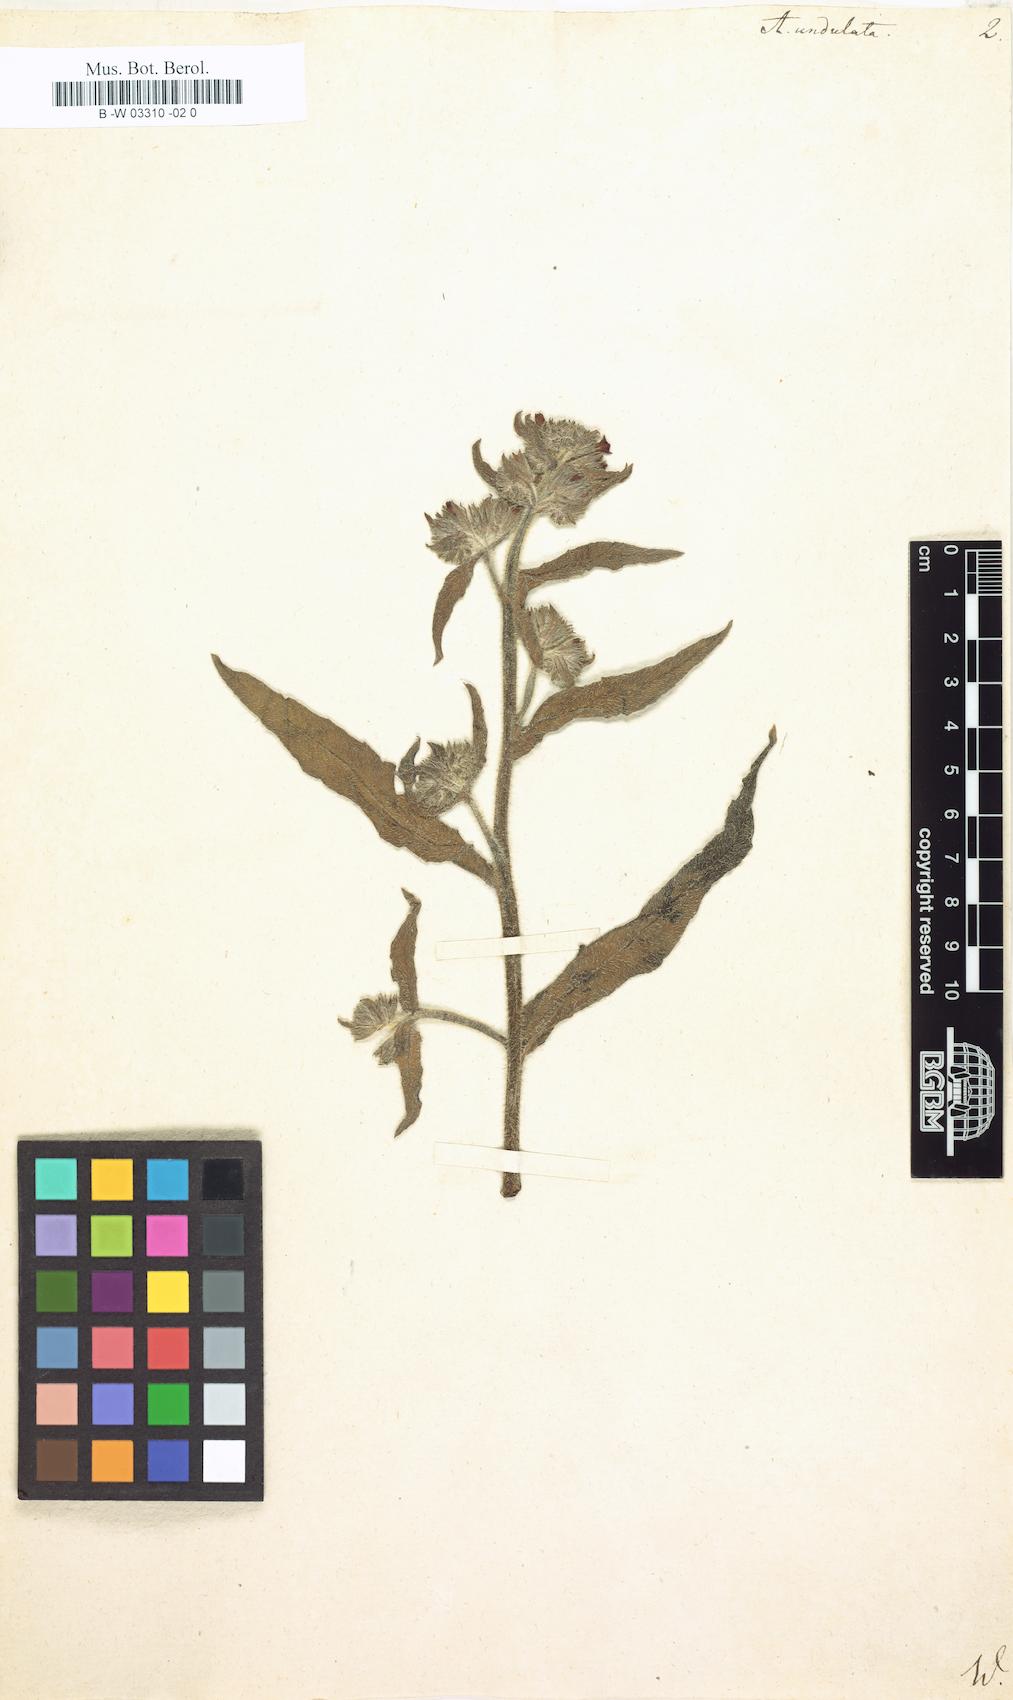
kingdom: Plantae
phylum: Tracheophyta
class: Magnoliopsida
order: Boraginales
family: Boraginaceae
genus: Anchusa
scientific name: Anchusa undulata
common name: Undulate alkanet
